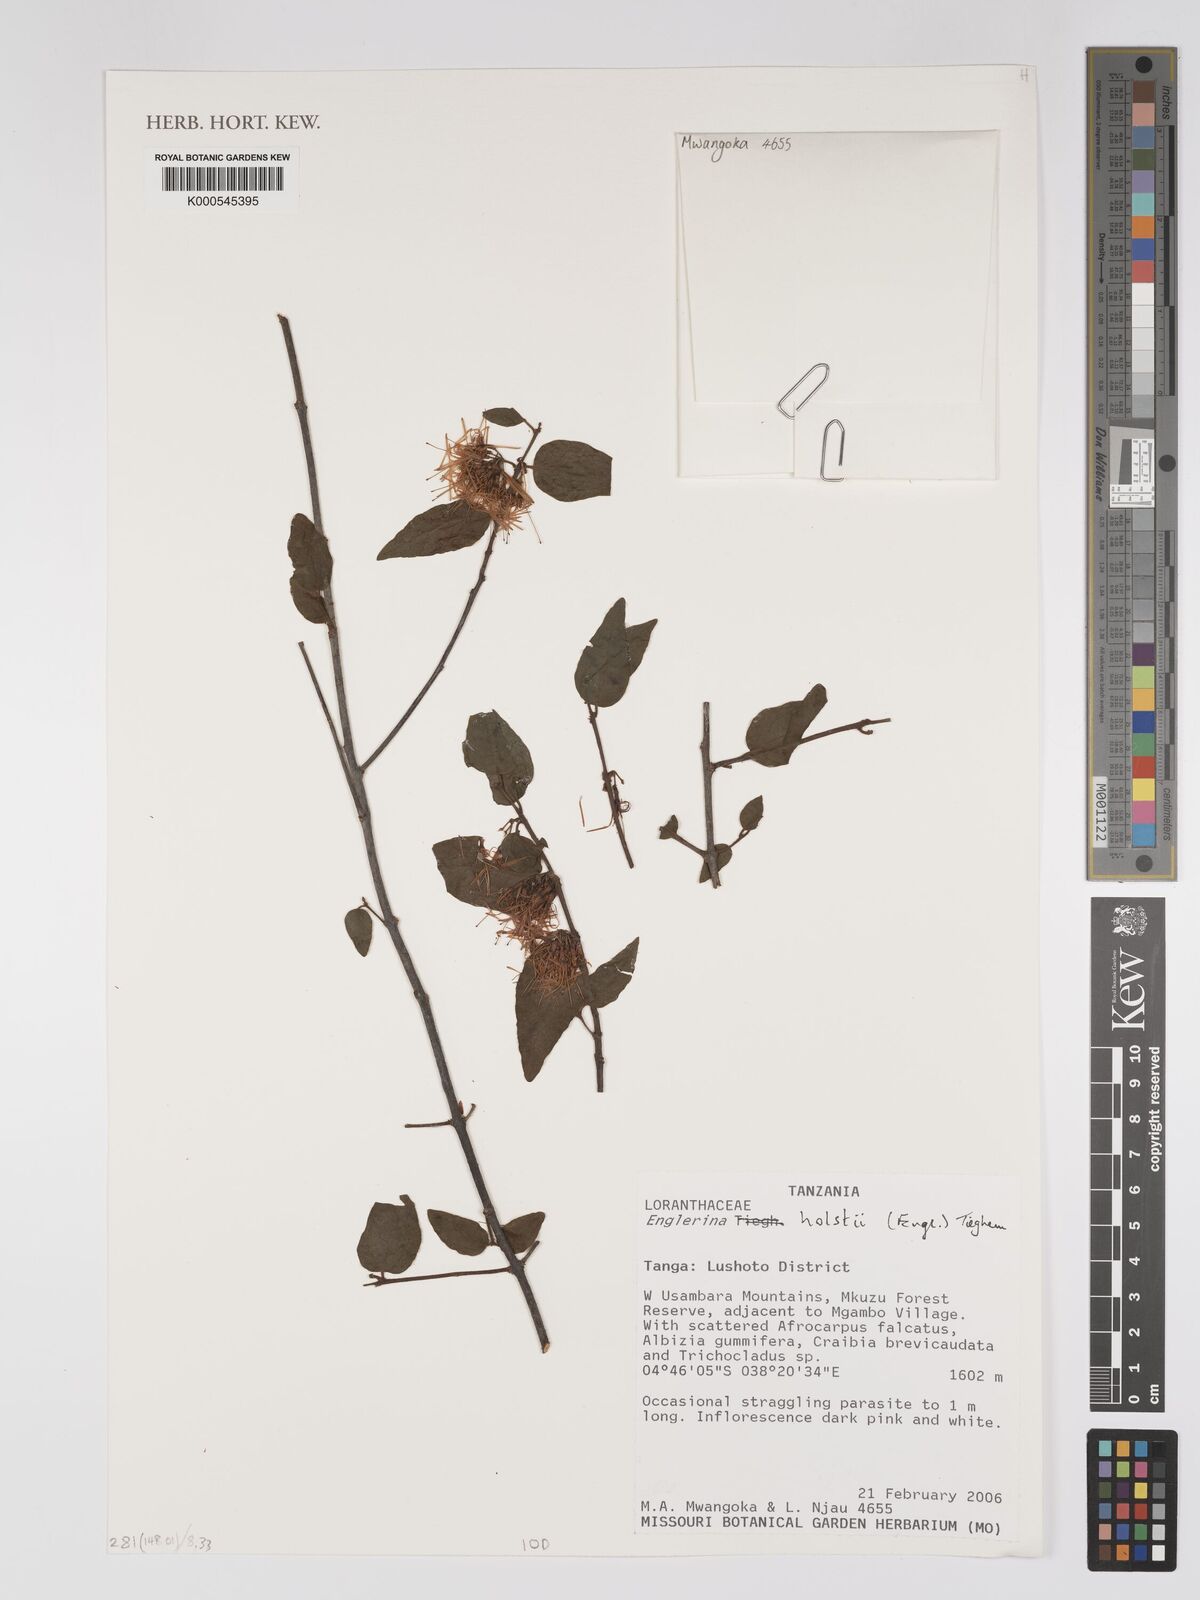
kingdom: Plantae
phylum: Tracheophyta
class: Magnoliopsida
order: Santalales
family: Loranthaceae
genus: Englerina
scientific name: Englerina holstii
